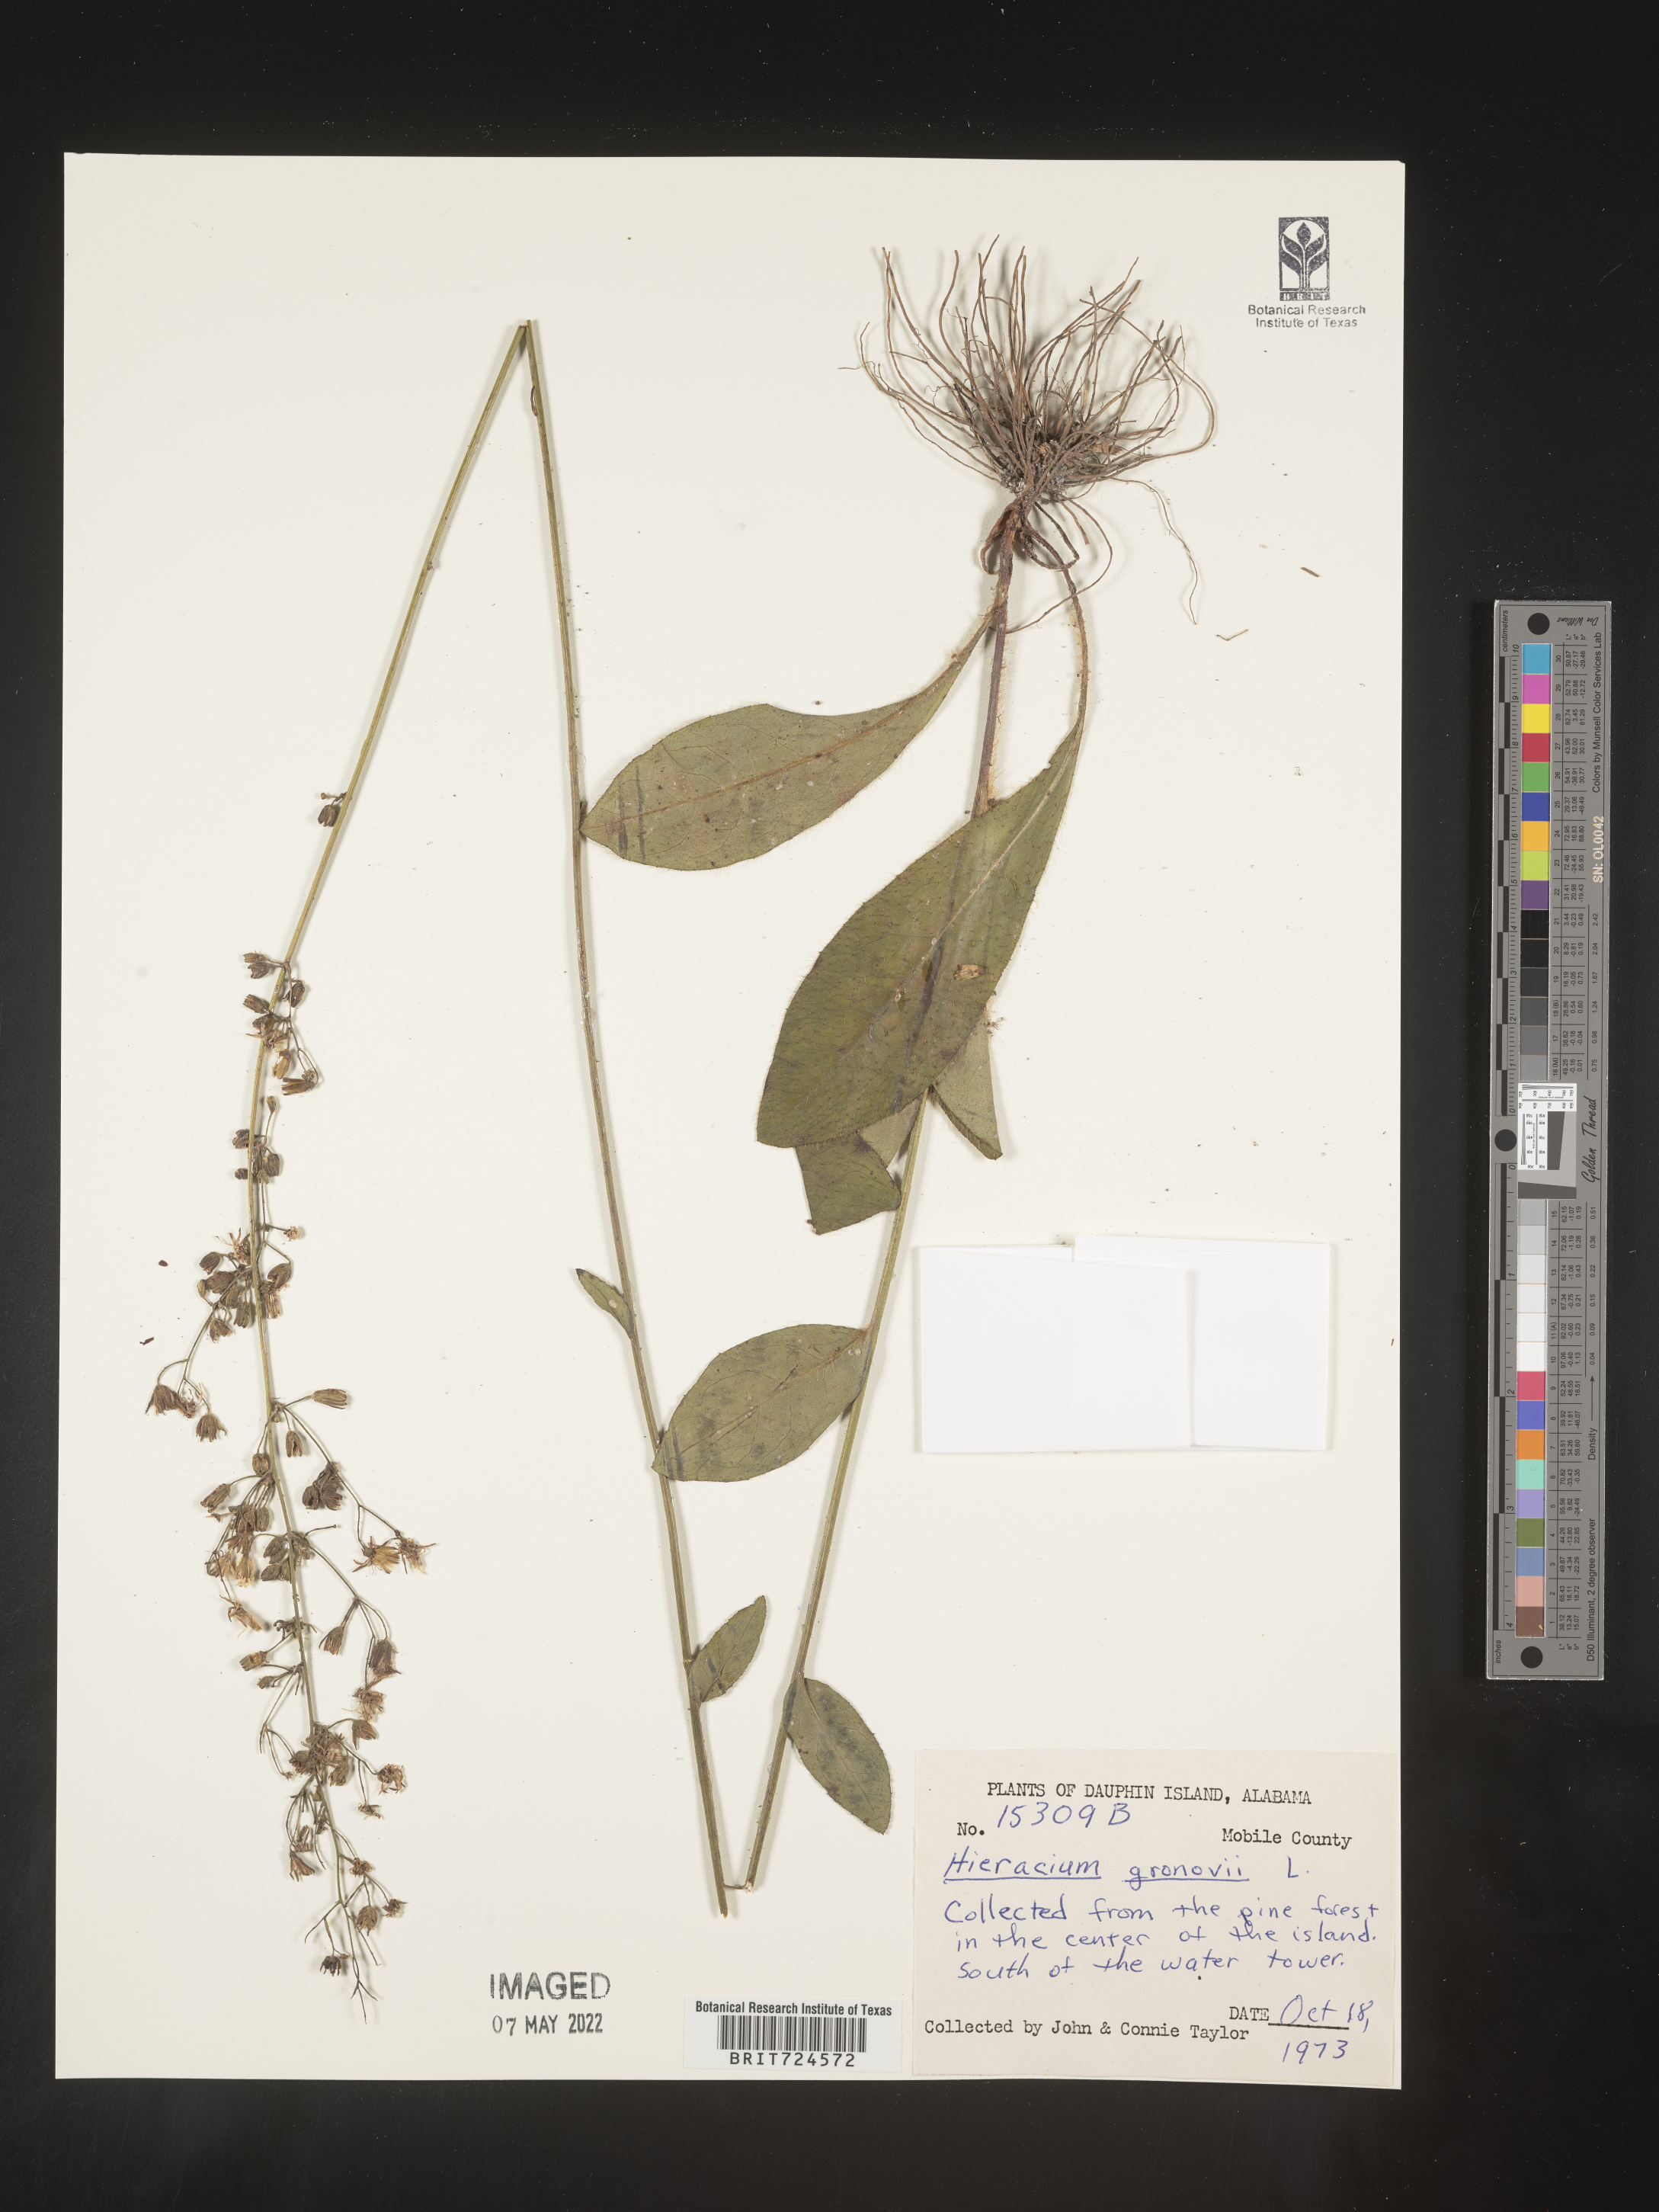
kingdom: Plantae
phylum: Tracheophyta
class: Magnoliopsida
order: Asterales
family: Asteraceae
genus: Hieracium
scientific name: Hieracium gronovii
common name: Beaked hawkweed
